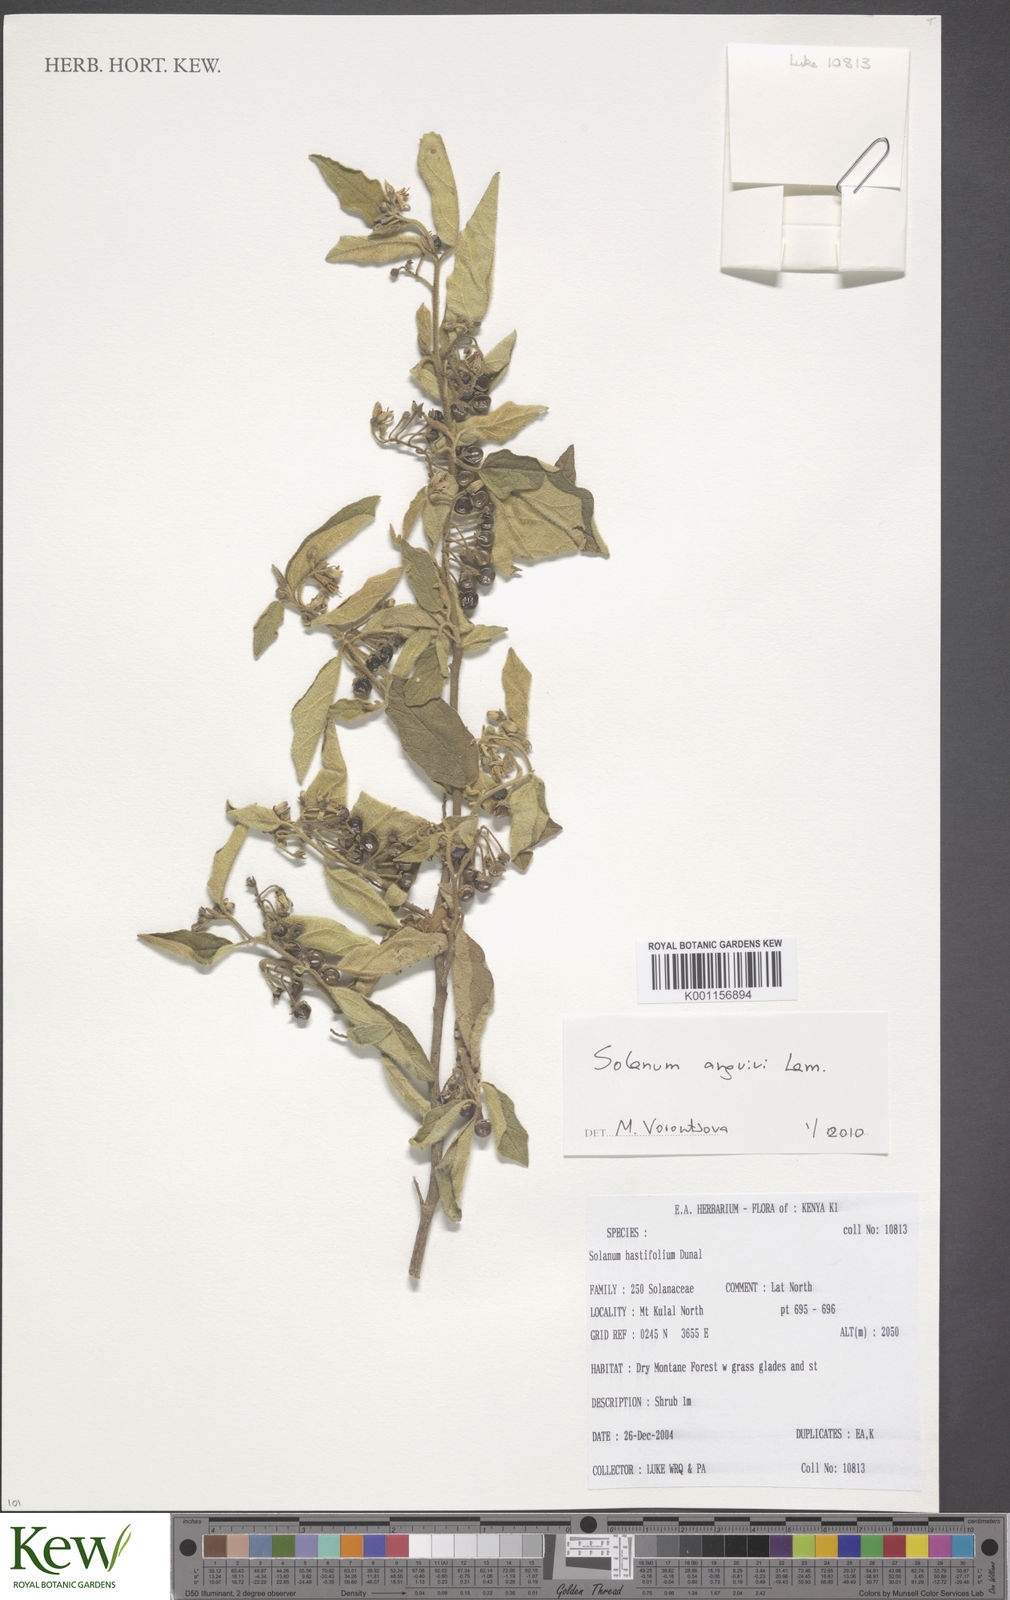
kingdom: Plantae
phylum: Tracheophyta
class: Magnoliopsida
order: Solanales
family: Solanaceae
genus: Solanum
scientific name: Solanum anguivi
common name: Forest bitterberry
